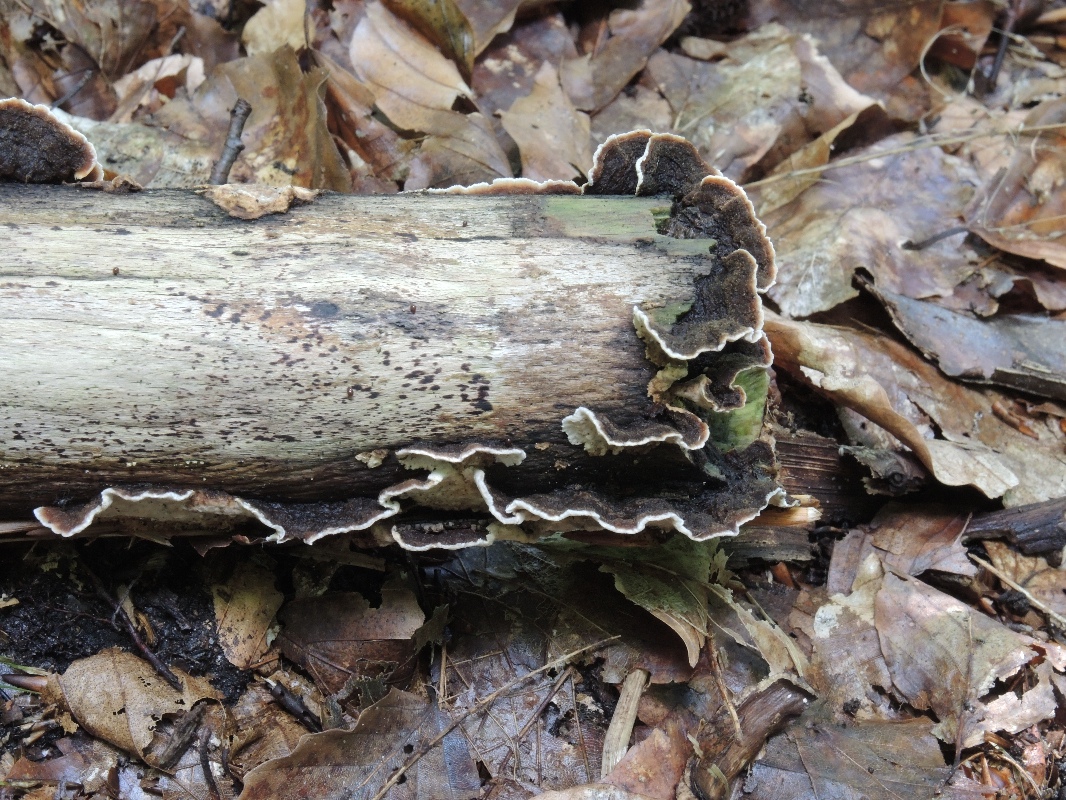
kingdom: Fungi
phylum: Basidiomycota
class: Agaricomycetes
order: Russulales
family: Hericiaceae
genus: Laxitextum
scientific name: Laxitextum bicolor
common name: tvefarvet filtskind
